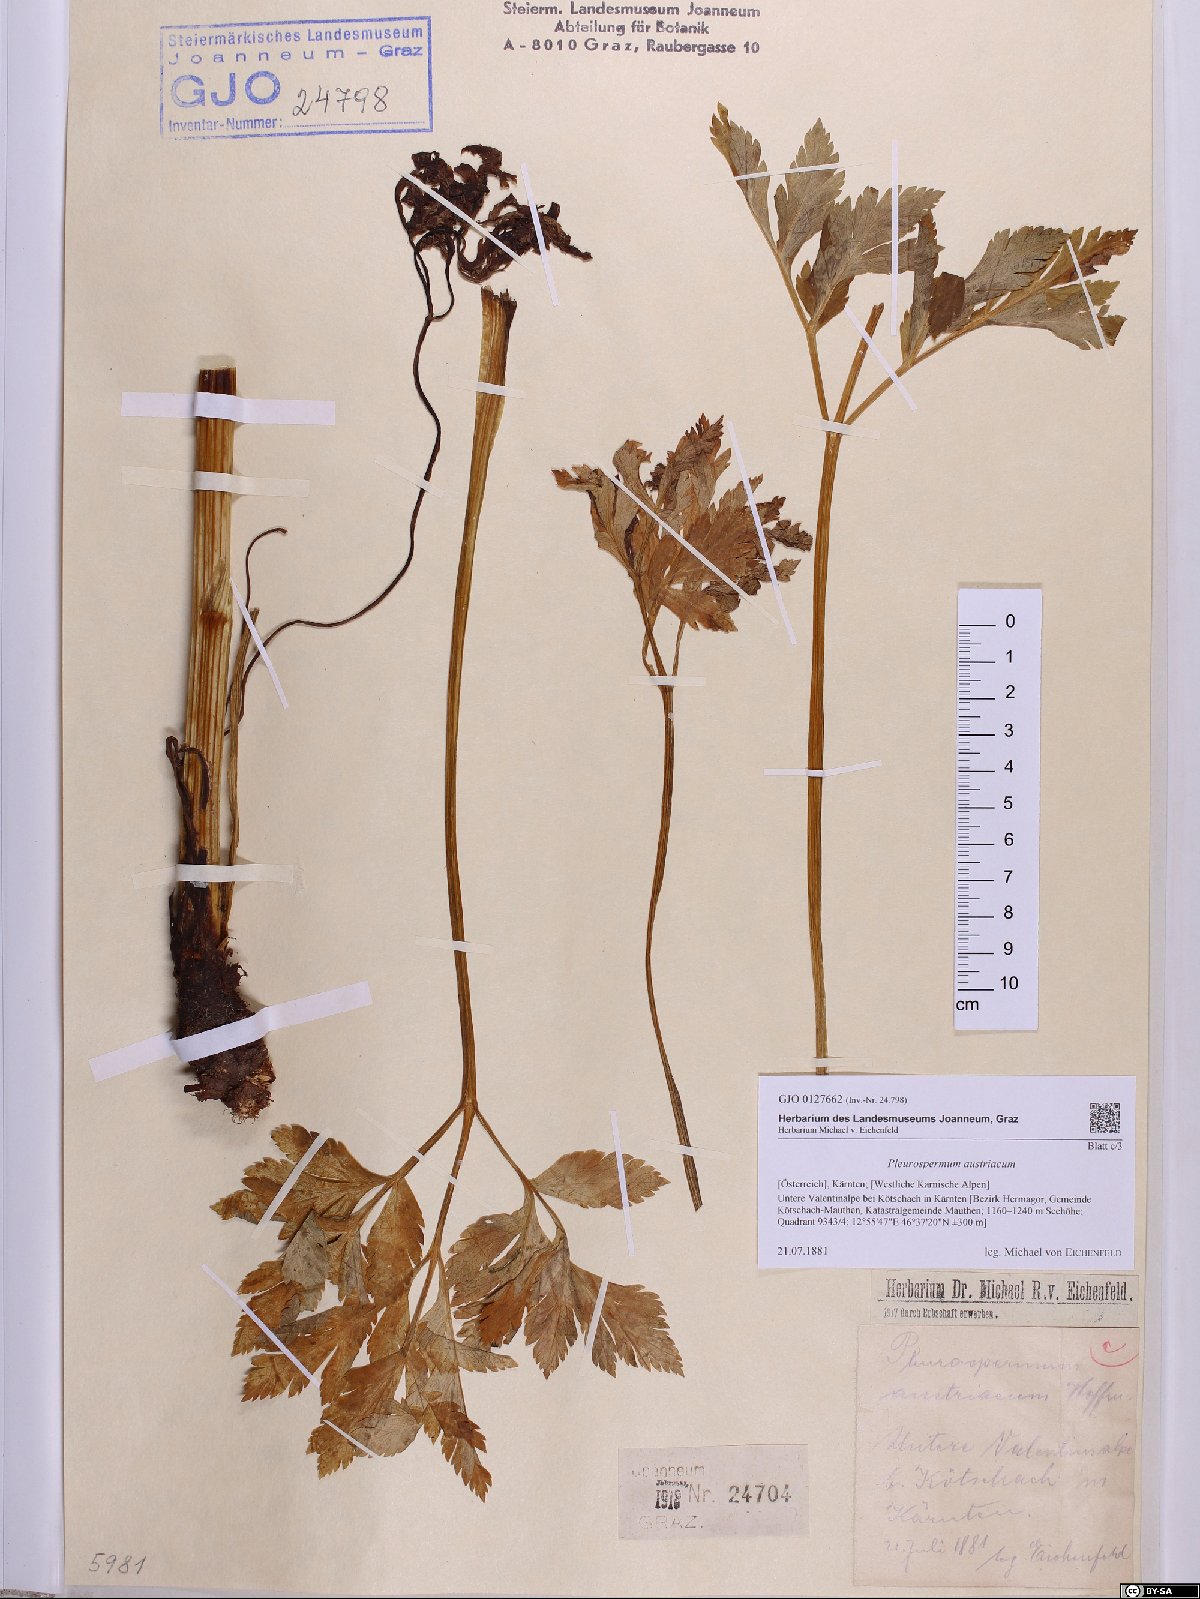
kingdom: Plantae
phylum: Tracheophyta
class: Magnoliopsida
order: Apiales
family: Apiaceae
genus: Pleurospermum
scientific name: Pleurospermum austriacum
